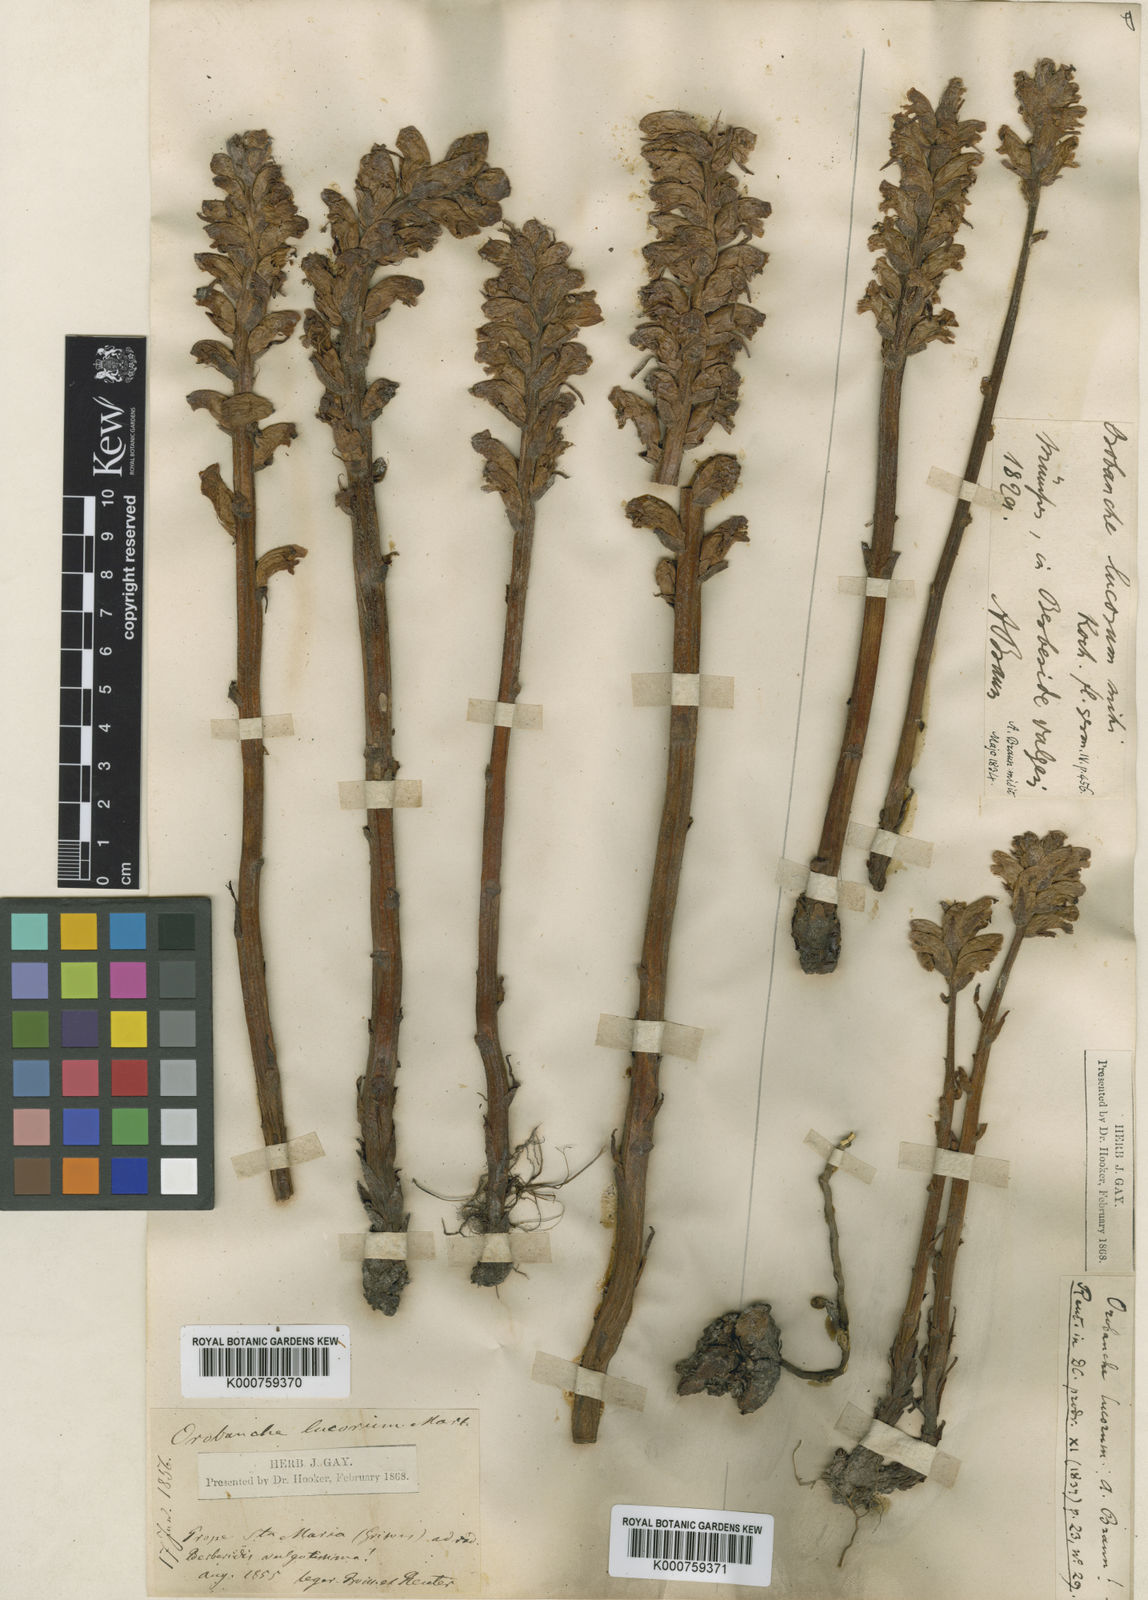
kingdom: Plantae
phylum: Tracheophyta
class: Magnoliopsida
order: Lamiales
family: Orobanchaceae
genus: Orobanche
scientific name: Orobanche
